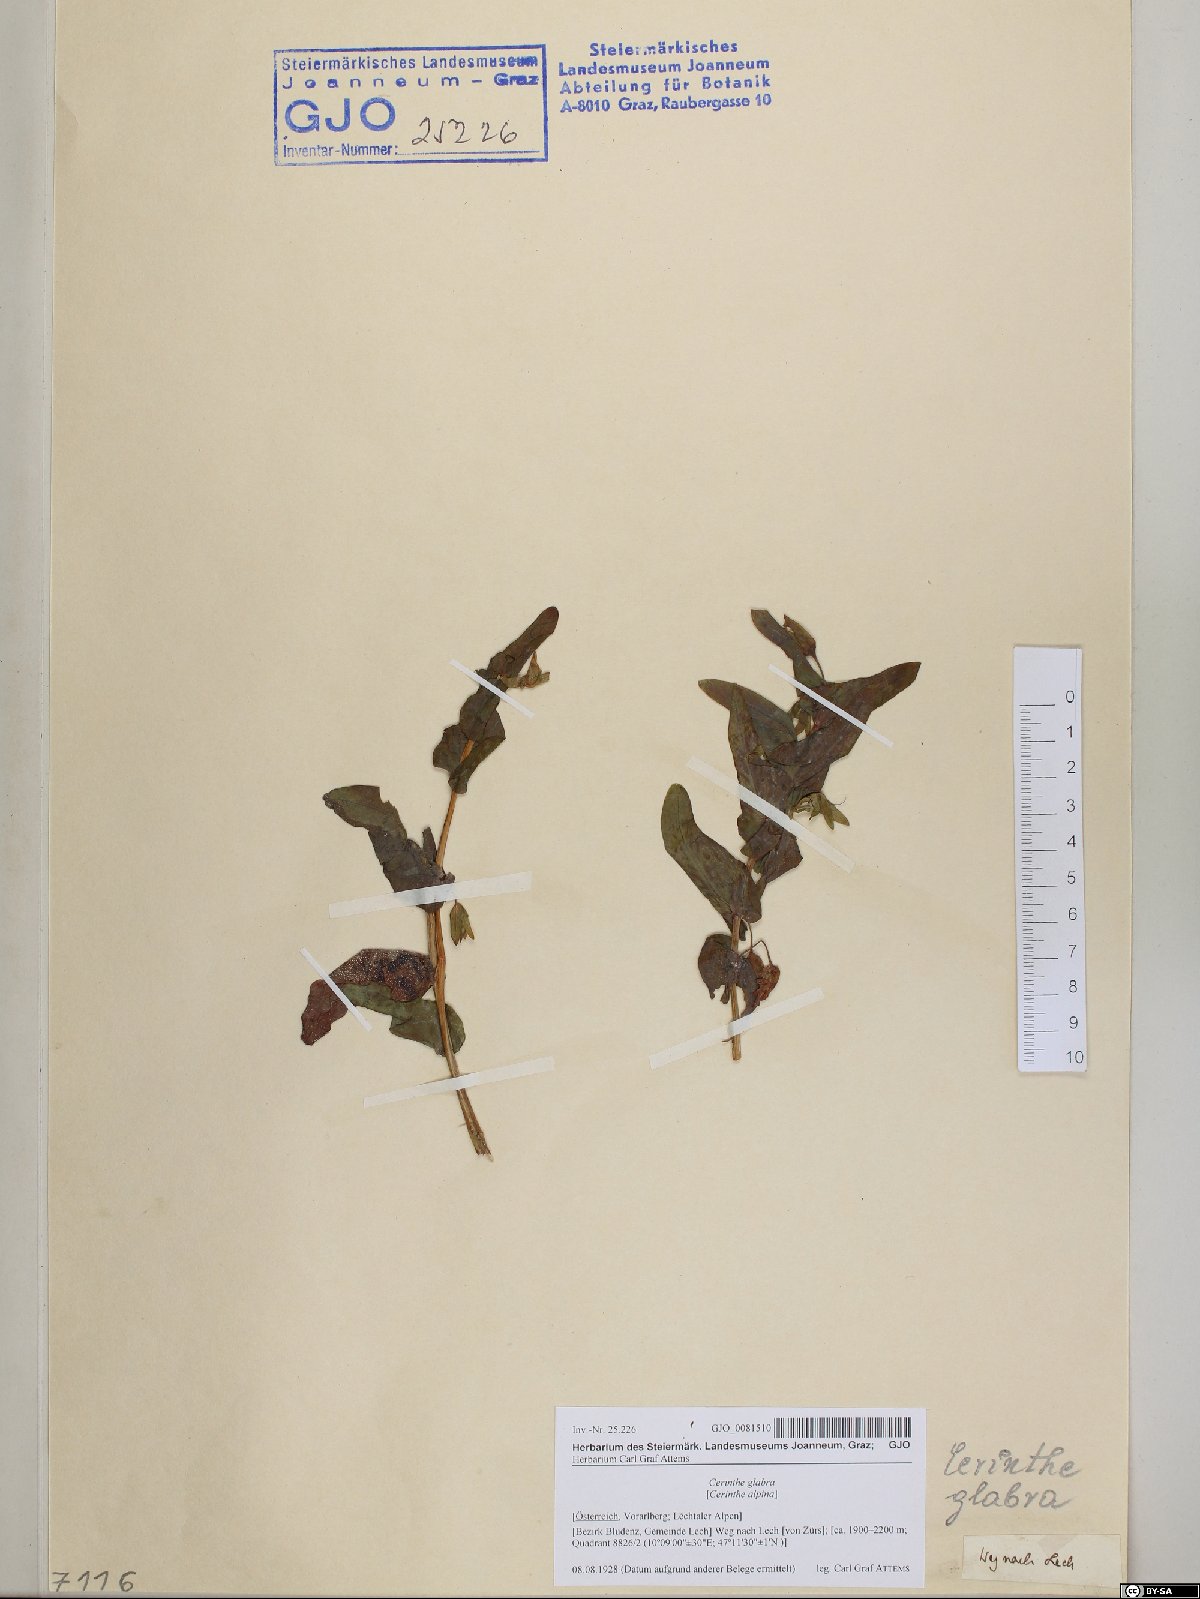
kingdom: Plantae
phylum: Tracheophyta
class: Magnoliopsida
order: Boraginales
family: Boraginaceae
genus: Cerinthe
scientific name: Cerinthe glabra
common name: Smooth honeywort
